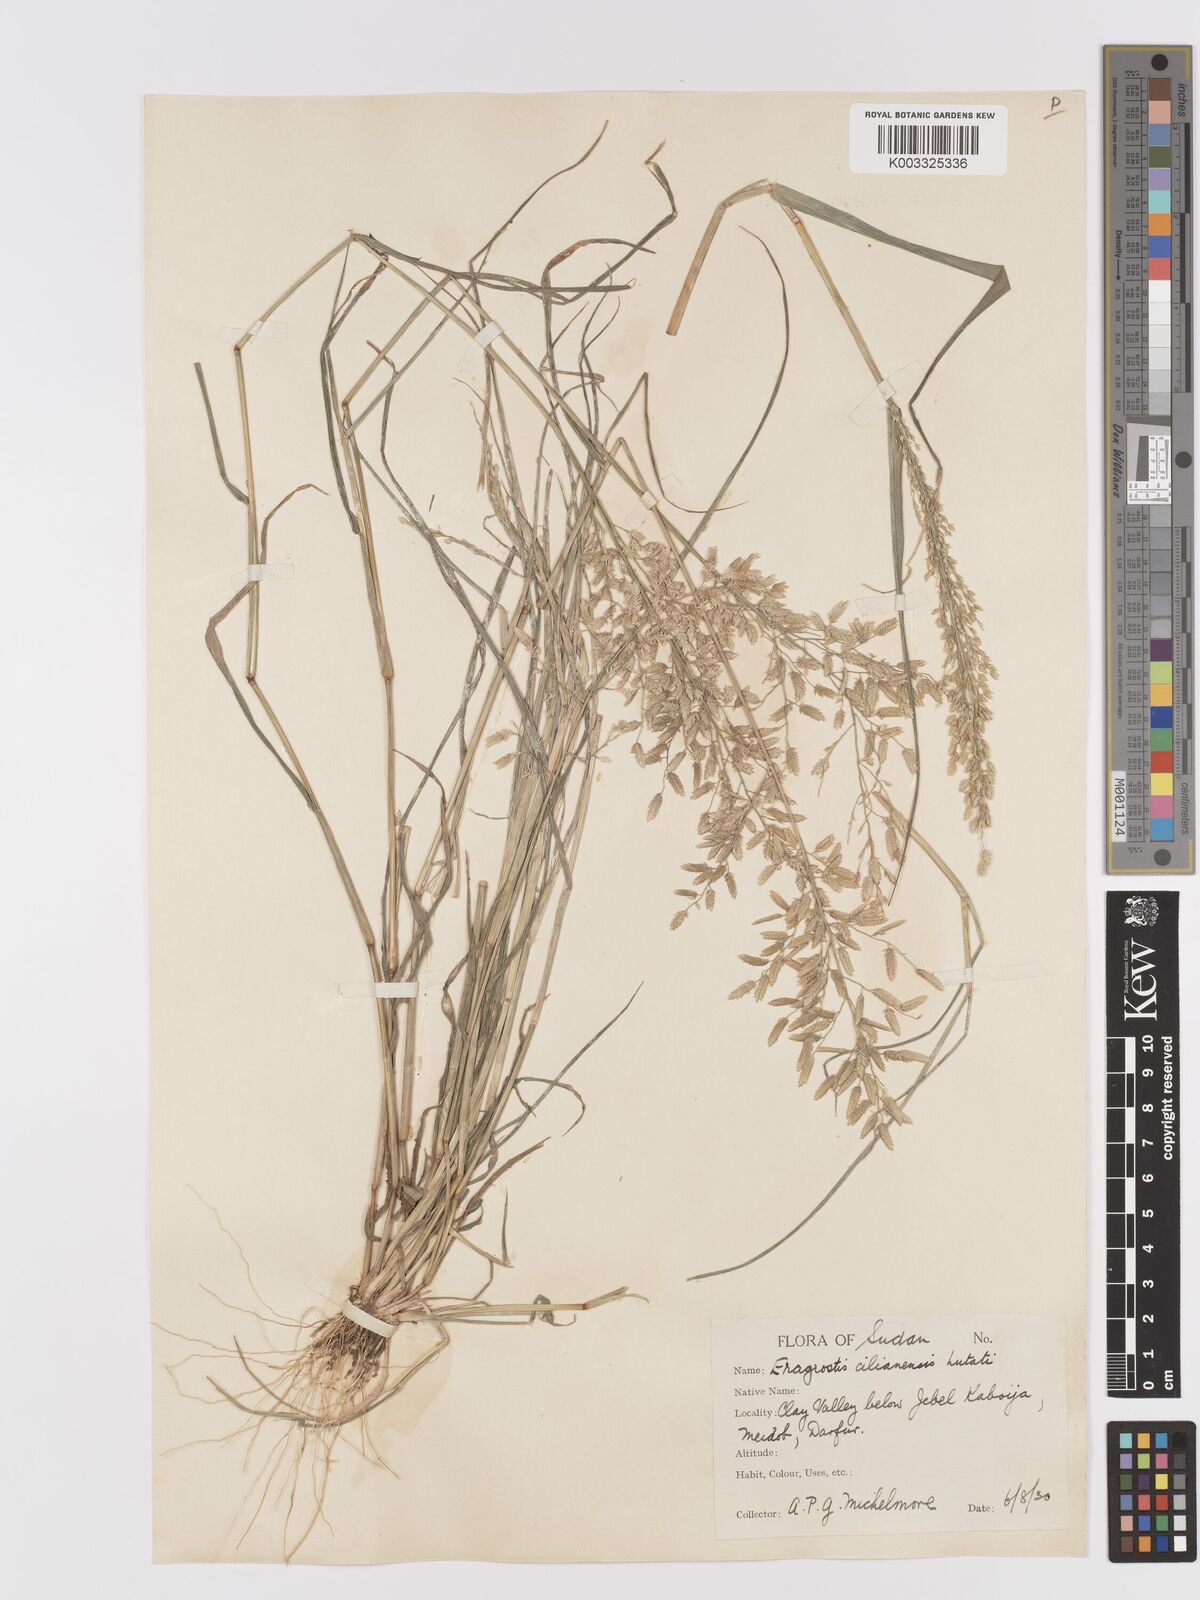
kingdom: Plantae
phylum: Tracheophyta
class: Liliopsida
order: Poales
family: Poaceae
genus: Eragrostis
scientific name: Eragrostis cilianensis
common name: Stinkgrass
